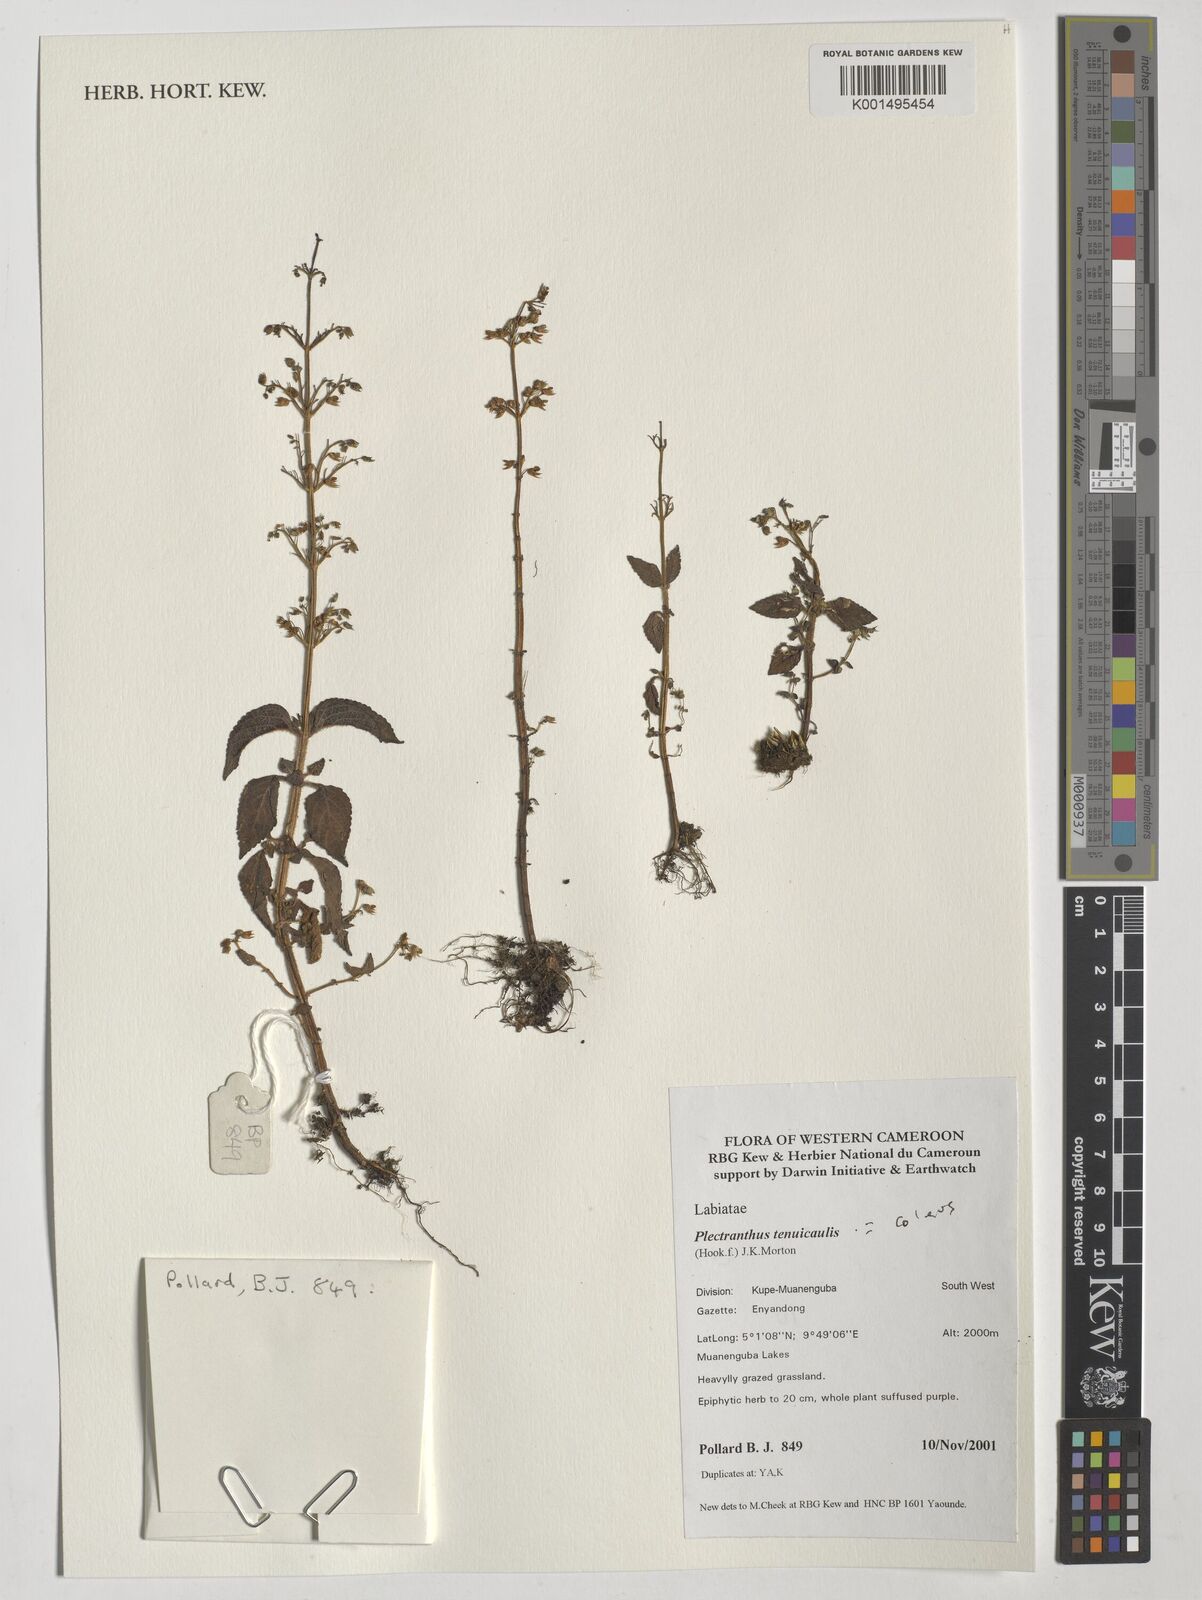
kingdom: Plantae
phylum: Tracheophyta
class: Magnoliopsida
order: Lamiales
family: Lamiaceae
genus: Coleus
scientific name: Coleus tenuicaulis
